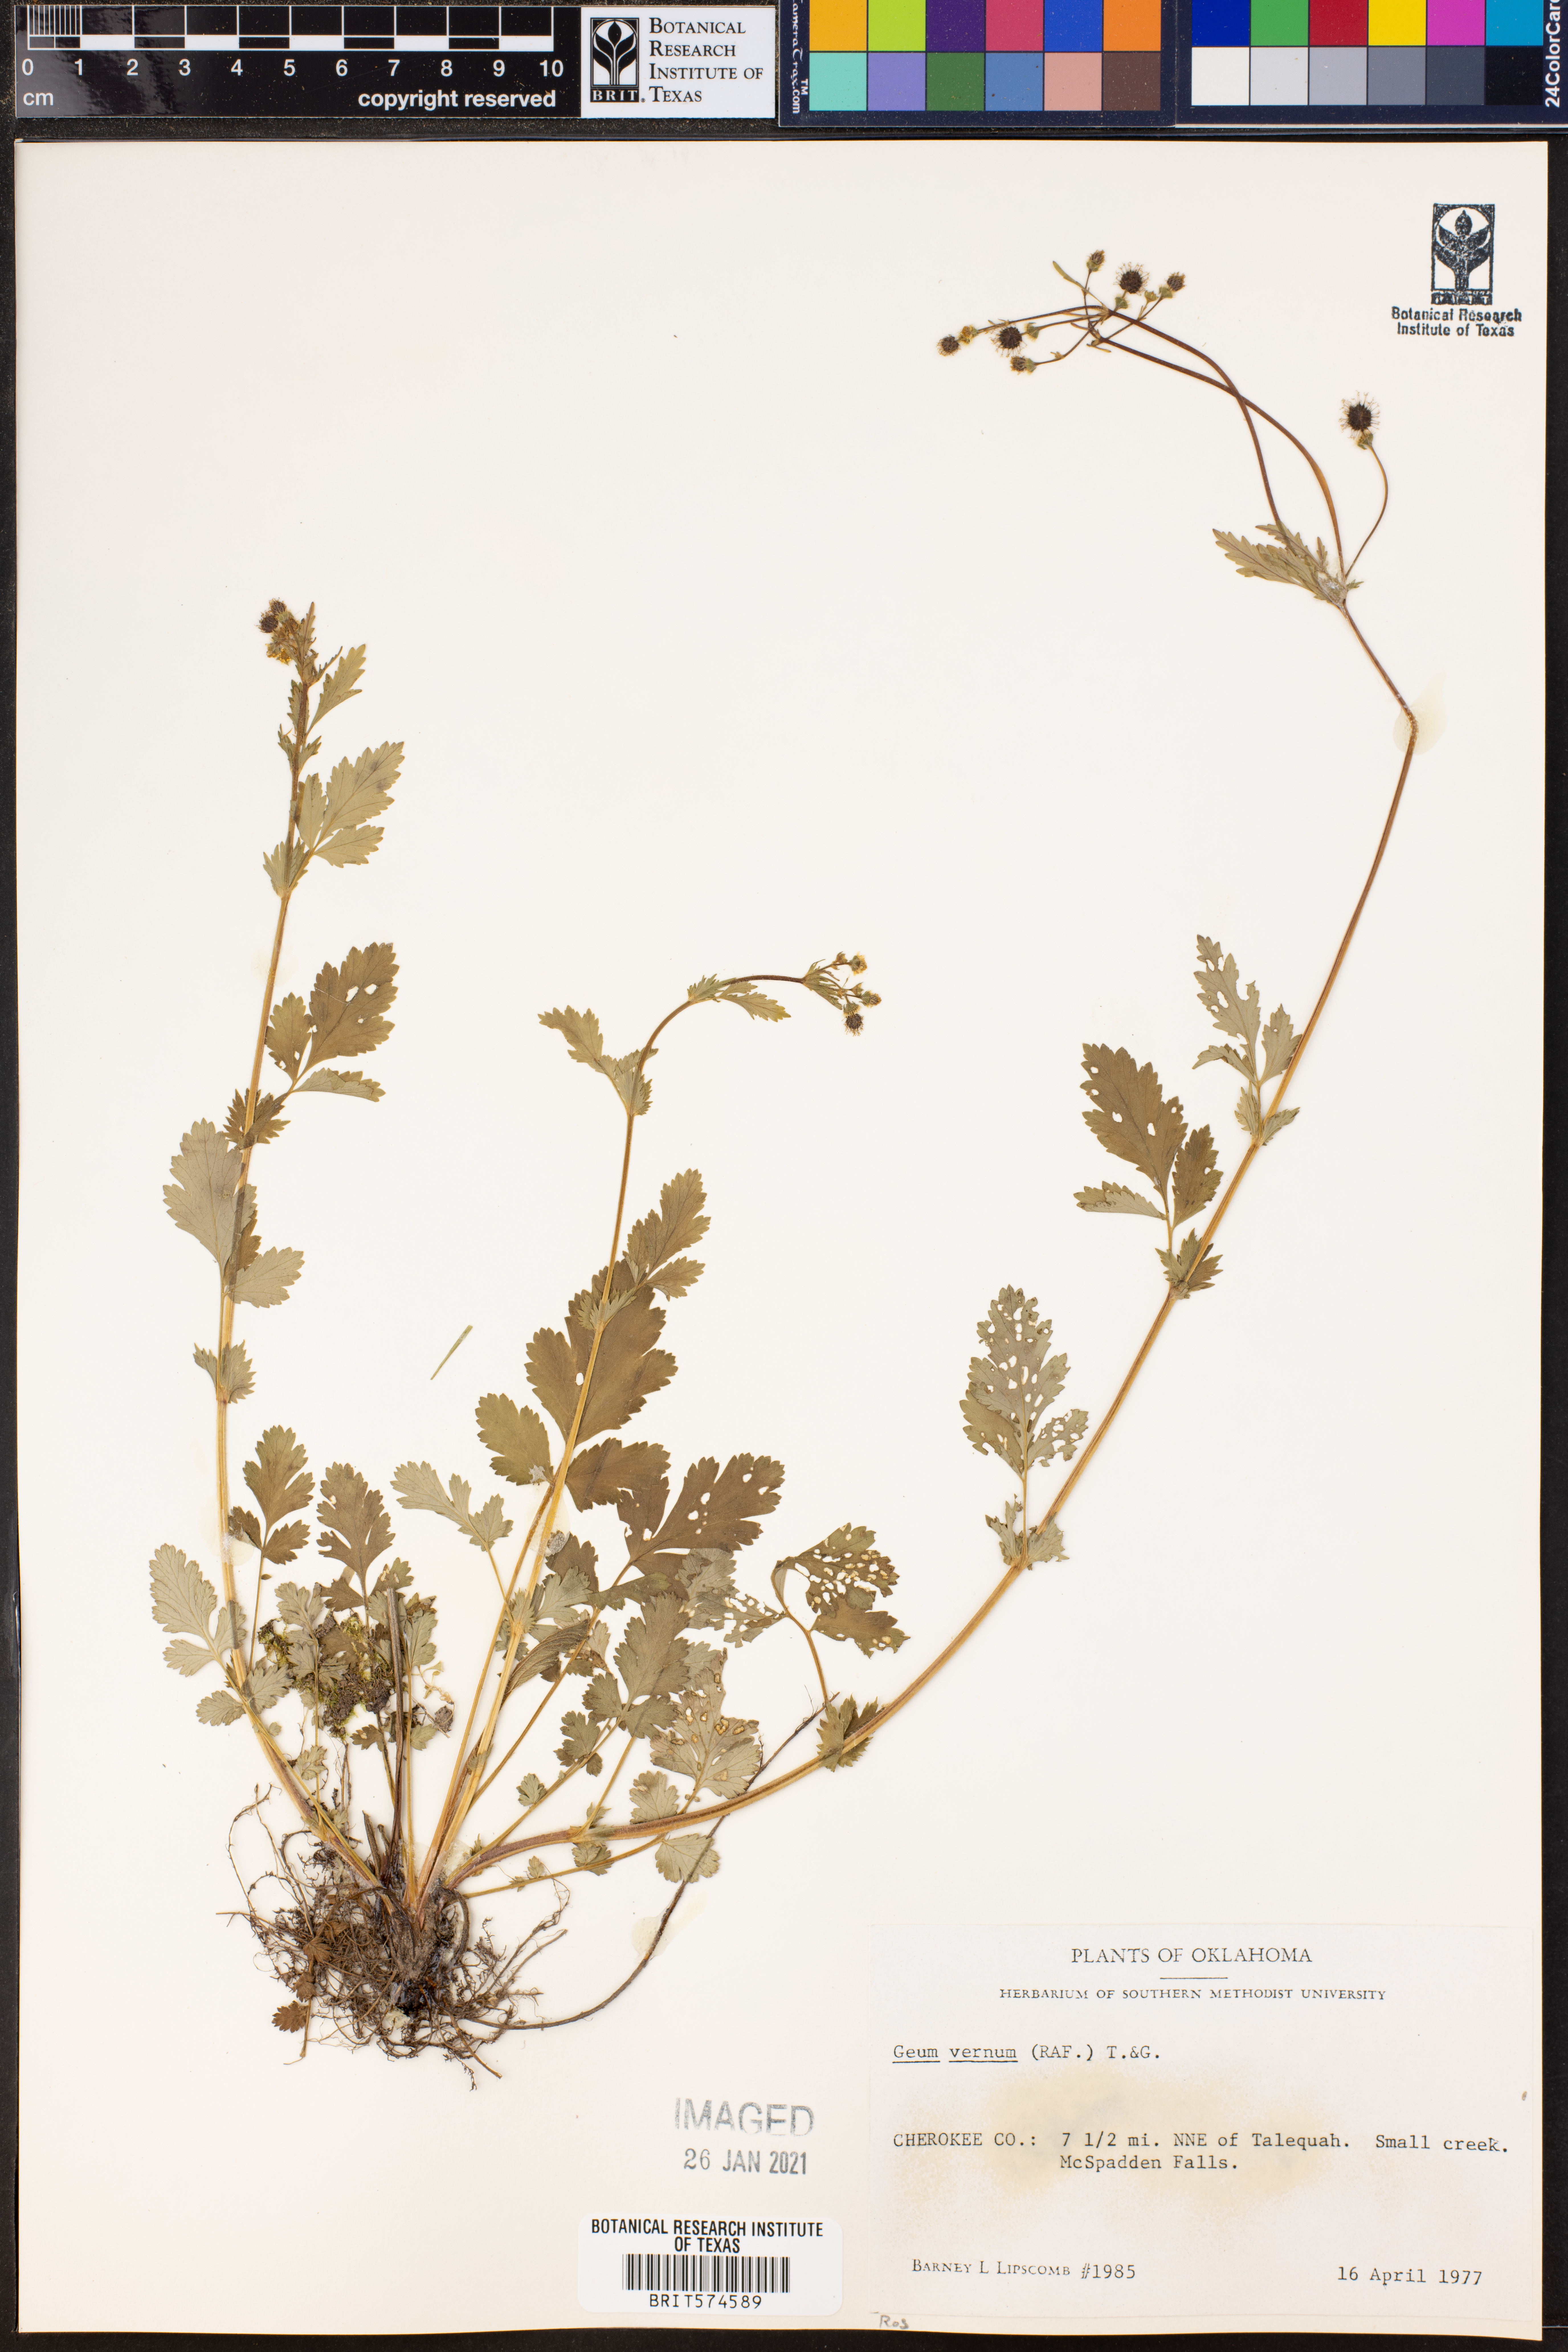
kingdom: Plantae
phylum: Tracheophyta
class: Magnoliopsida
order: Rosales
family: Rosaceae
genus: Geum
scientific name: Geum vernum
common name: Spring avens
